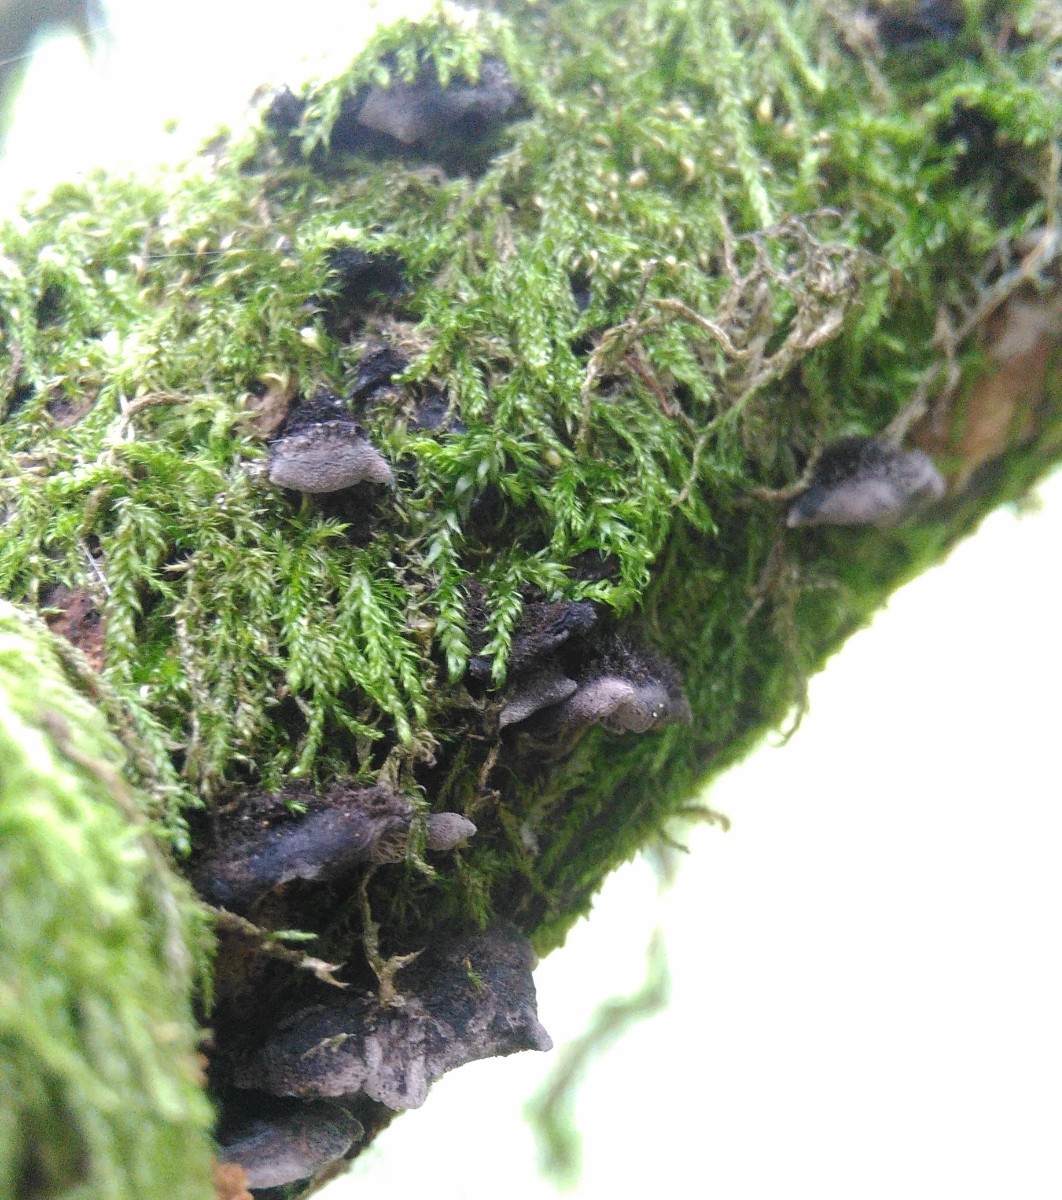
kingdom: Fungi
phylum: Basidiomycota
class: Agaricomycetes
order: Agaricales
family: Pleurotaceae
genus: Resupinatus
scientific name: Resupinatus trichotis
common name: mørkfiltet barkhat
